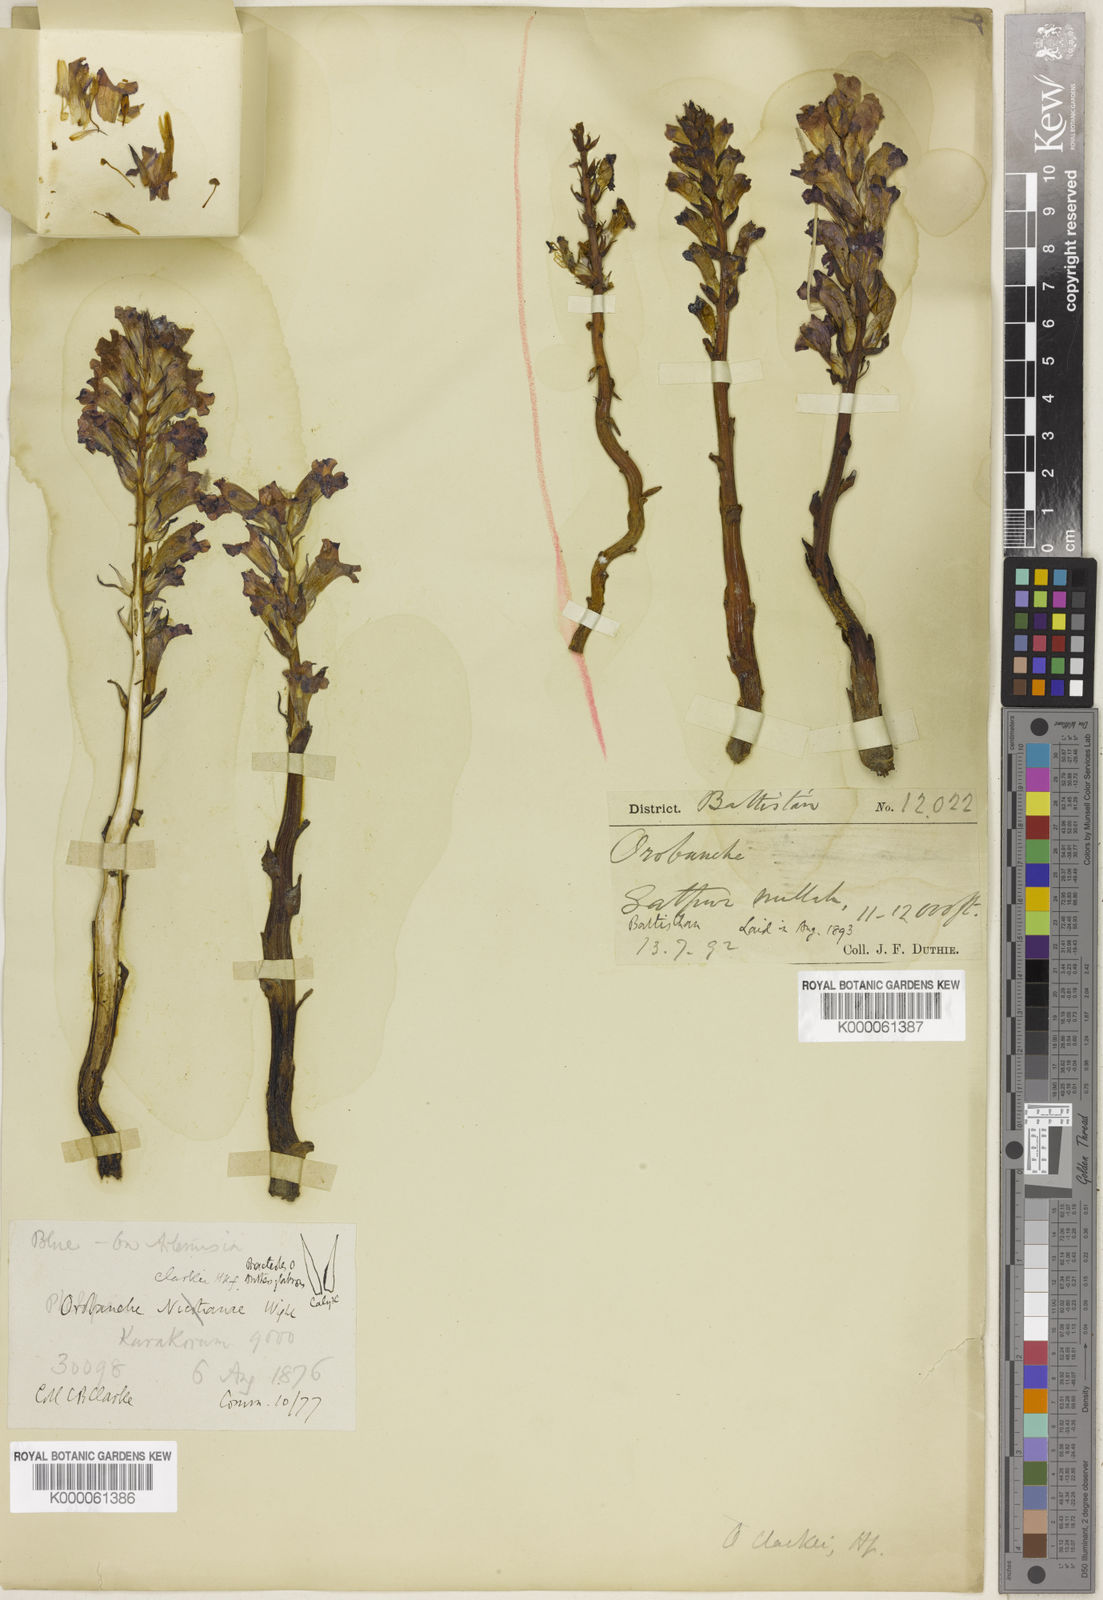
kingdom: Plantae
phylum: Tracheophyta
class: Magnoliopsida
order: Lamiales
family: Orobanchaceae
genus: Orobanche
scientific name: Orobanche clarkei
